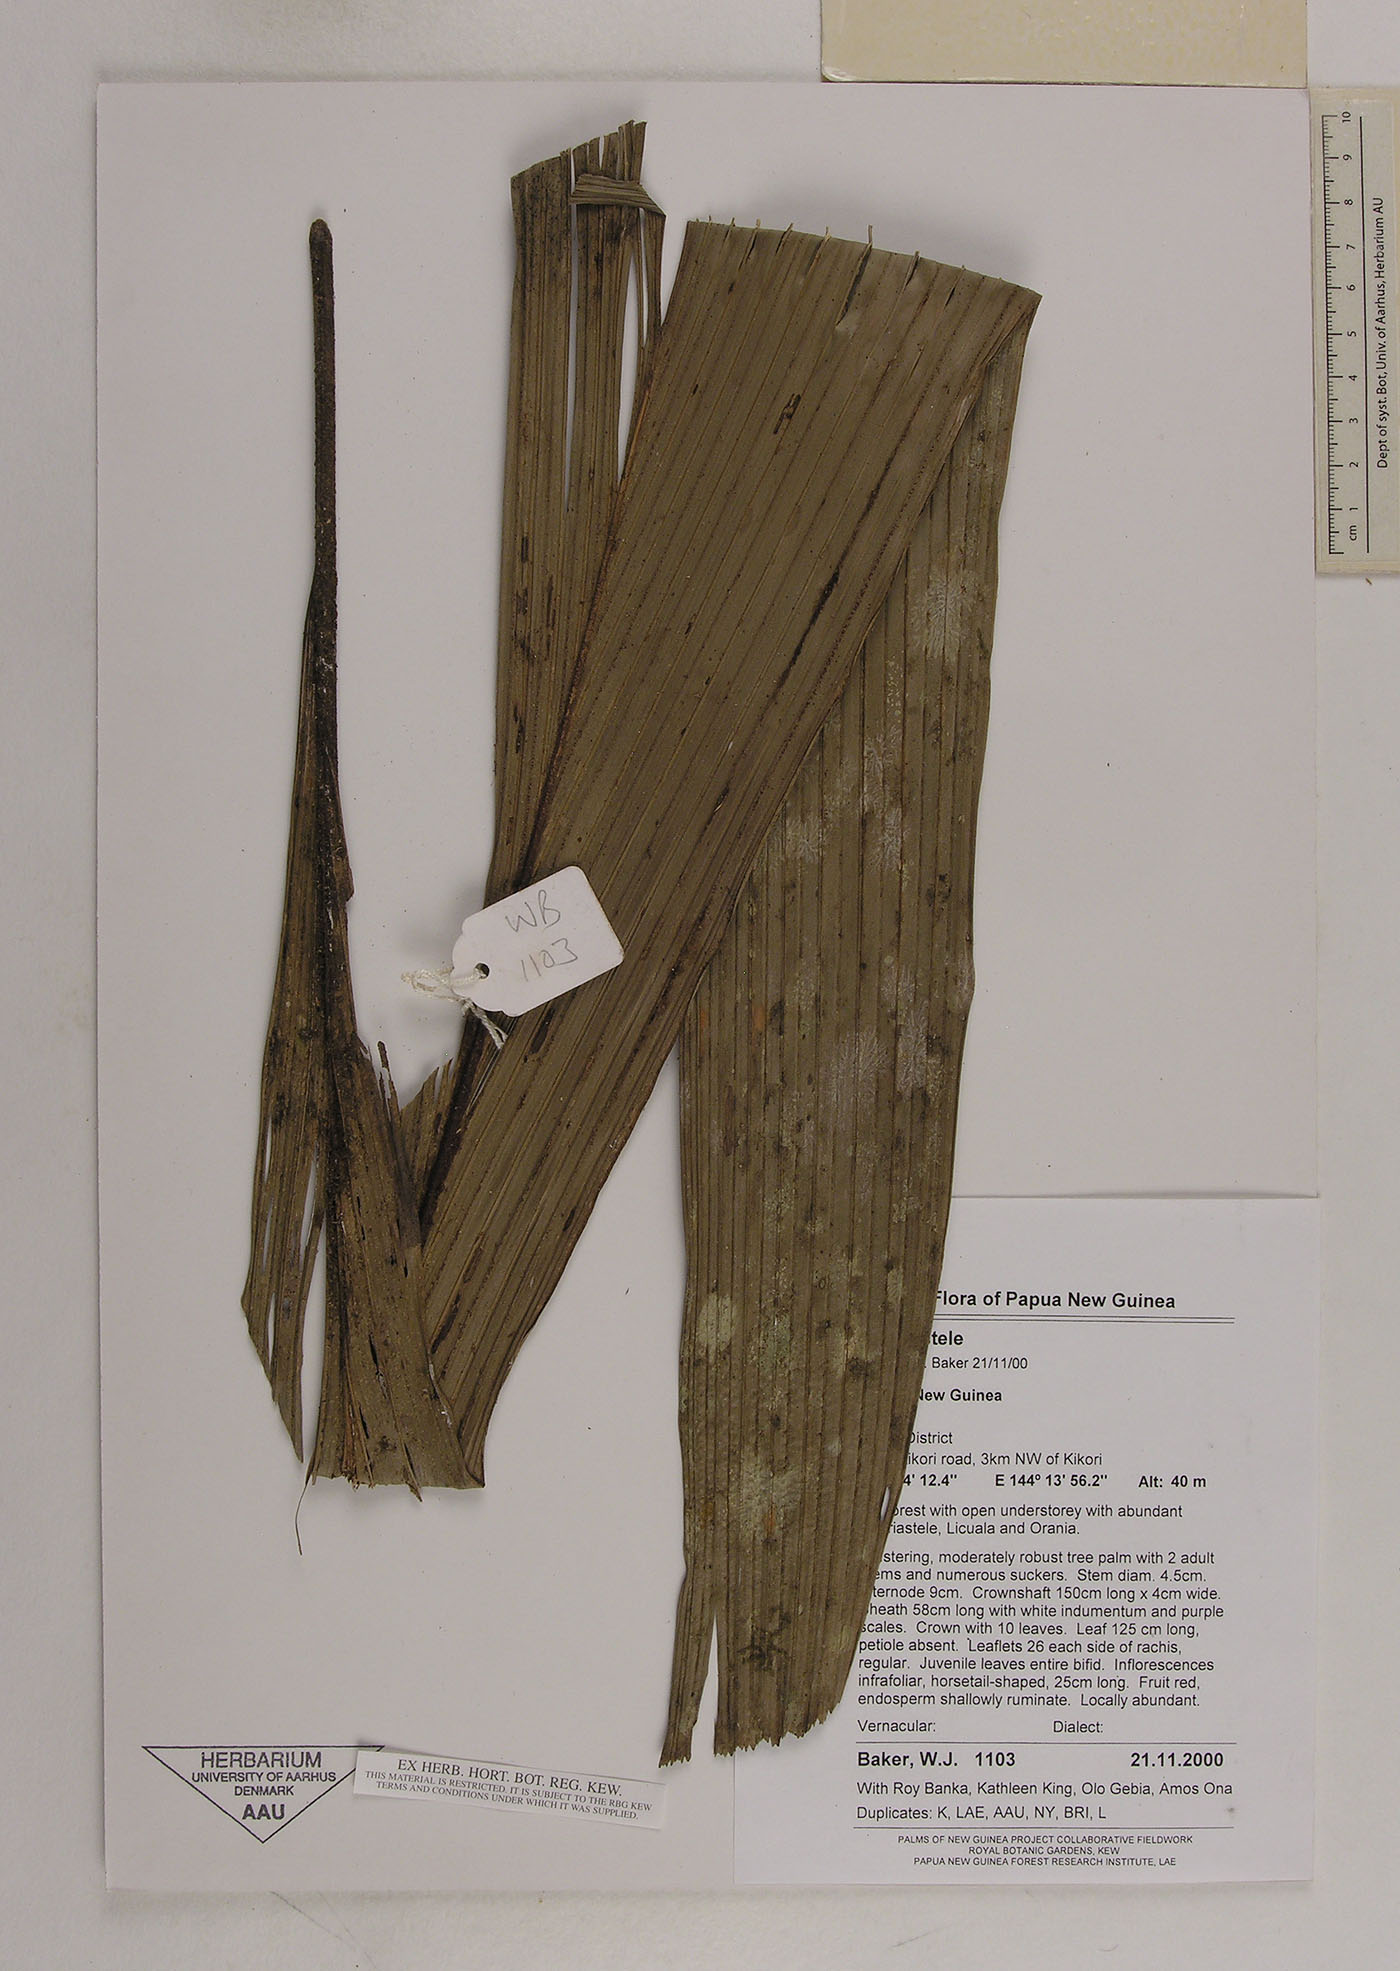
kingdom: Plantae
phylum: Tracheophyta
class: Liliopsida
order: Arecales
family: Arecaceae
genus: Hydriastele
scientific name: Hydriastele
